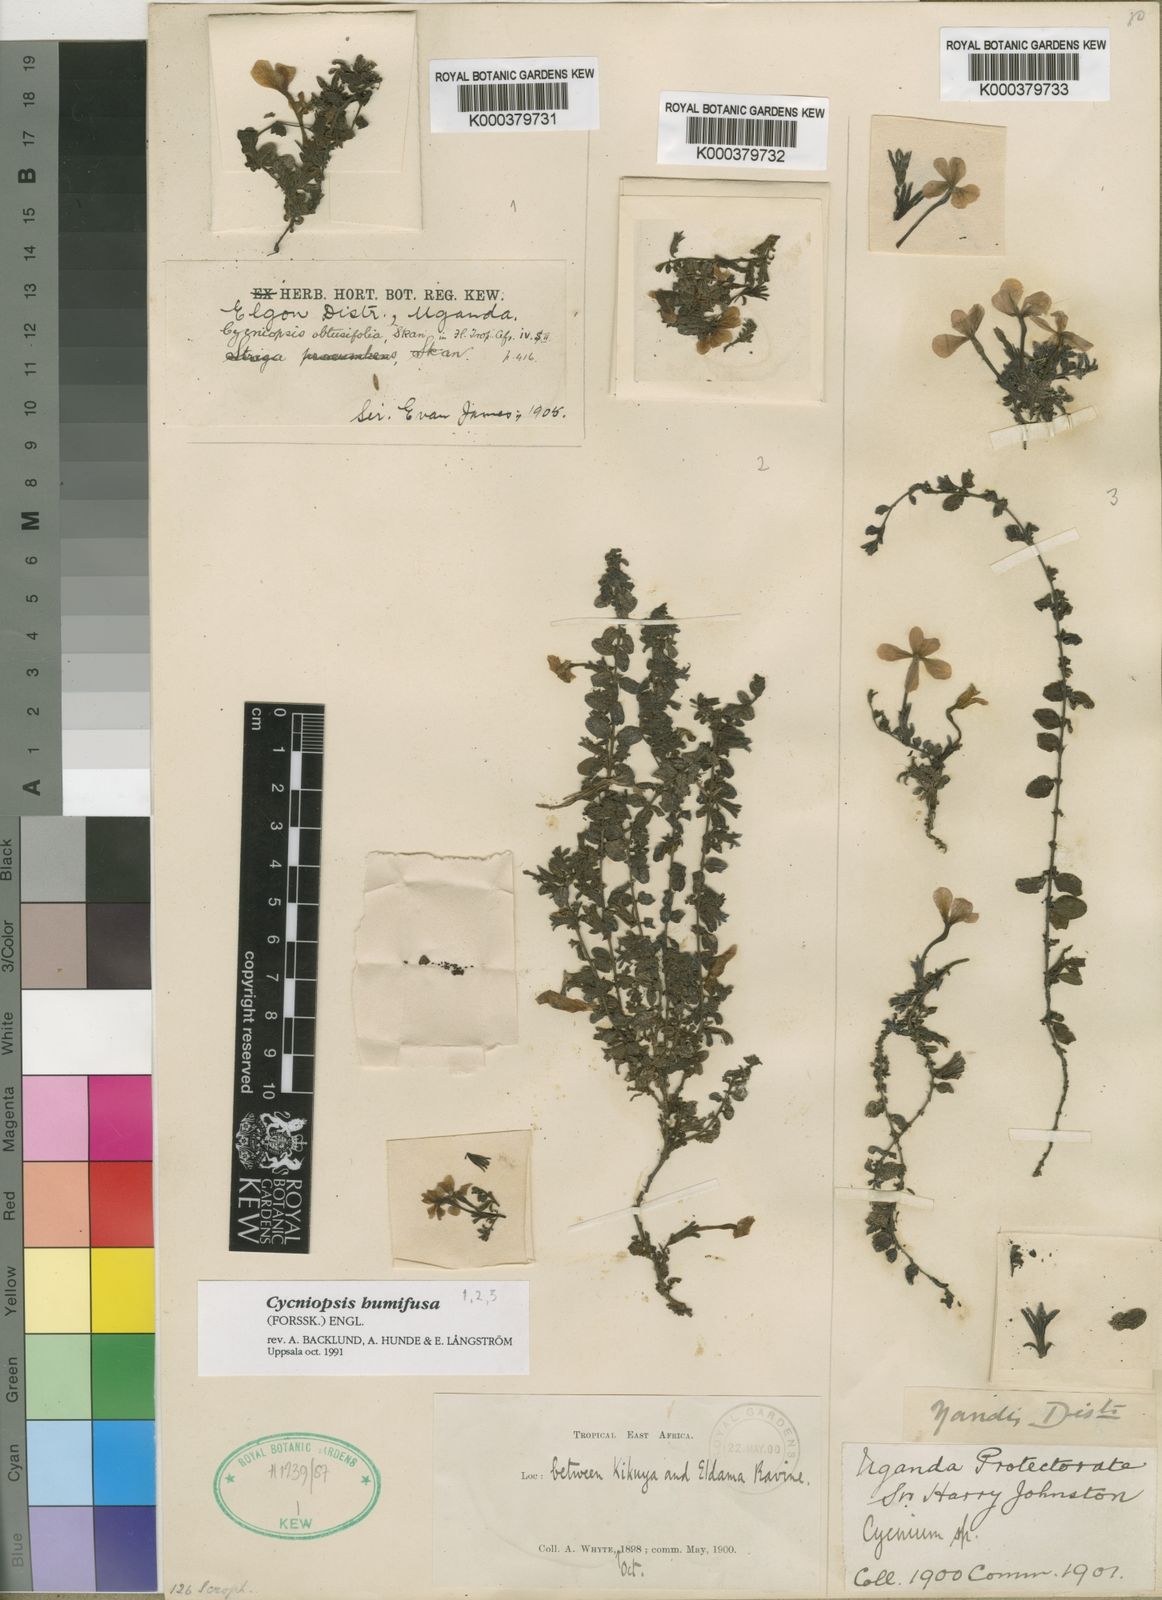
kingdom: Plantae
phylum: Tracheophyta
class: Magnoliopsida
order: Lamiales
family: Orobanchaceae
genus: Cycniopsis
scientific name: Cycniopsis humifusa
